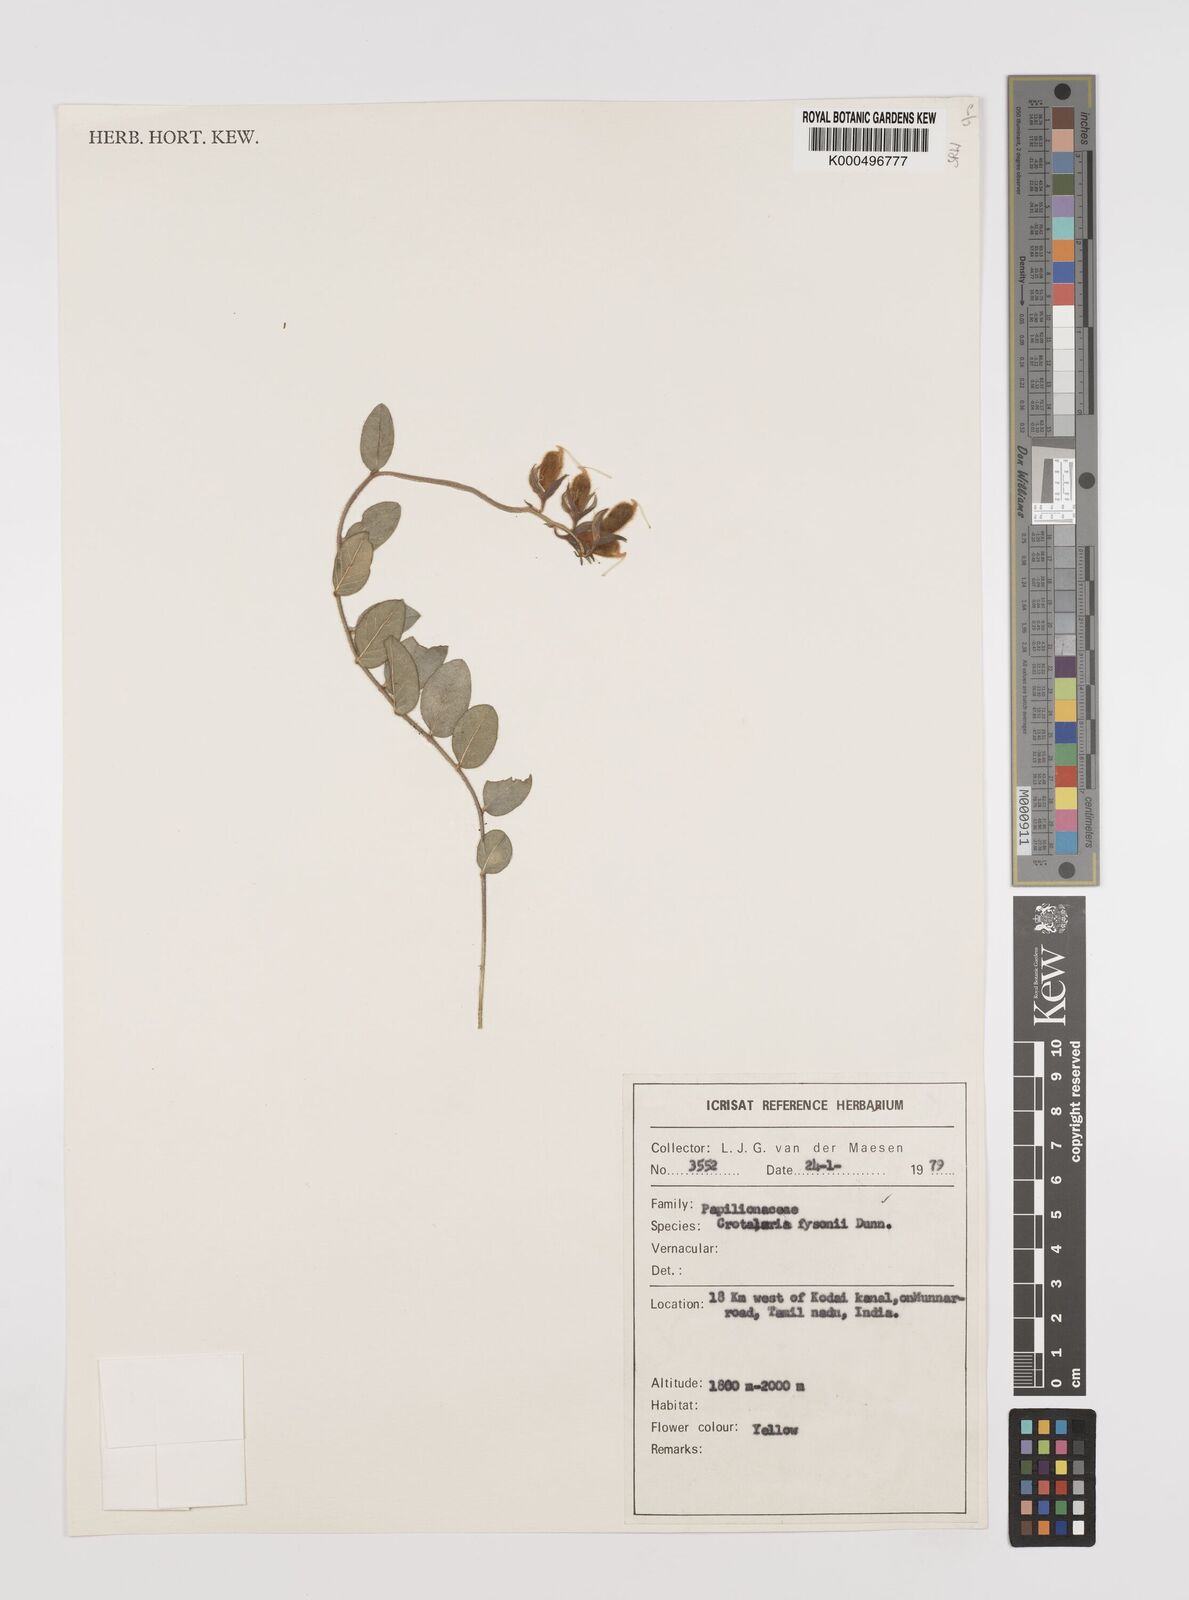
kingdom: Plantae
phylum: Tracheophyta
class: Magnoliopsida
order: Fabales
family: Fabaceae
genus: Crotalaria
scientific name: Crotalaria fysonii
